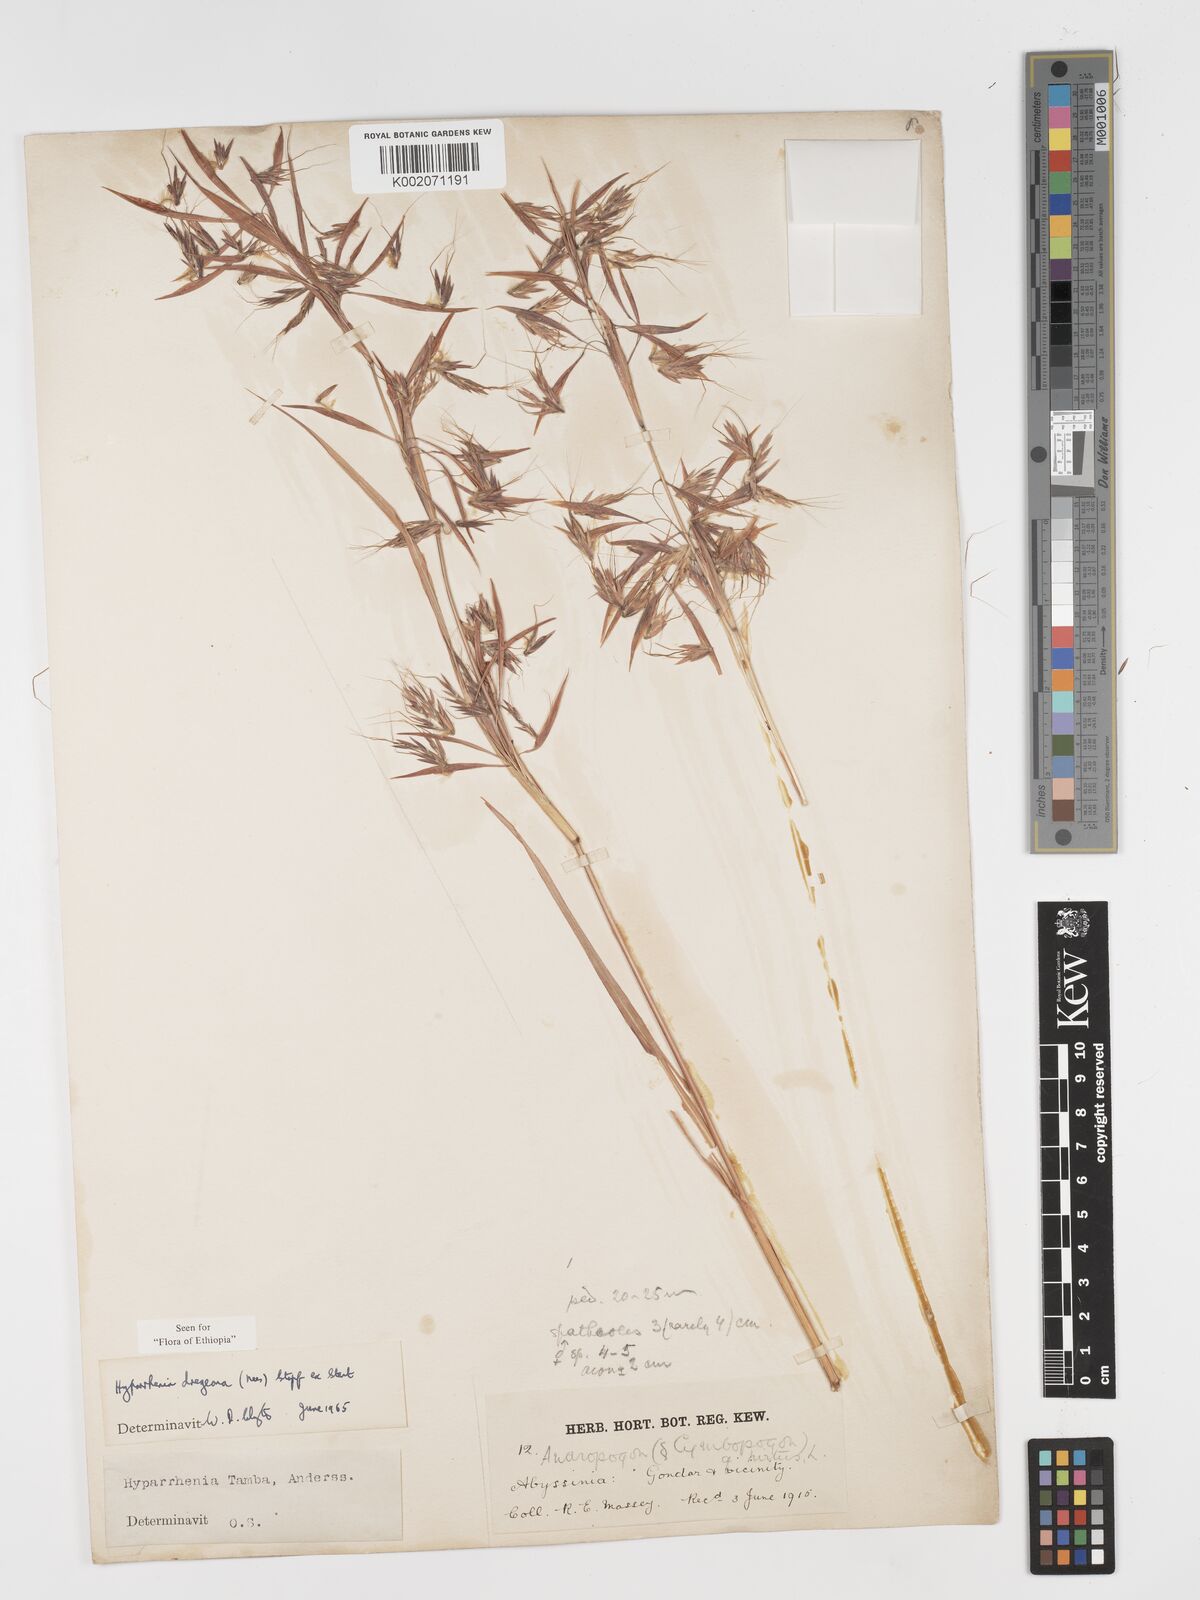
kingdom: Plantae
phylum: Tracheophyta
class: Liliopsida
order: Poales
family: Poaceae
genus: Hyparrhenia
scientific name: Hyparrhenia dregeana
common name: Silky thatching grass
